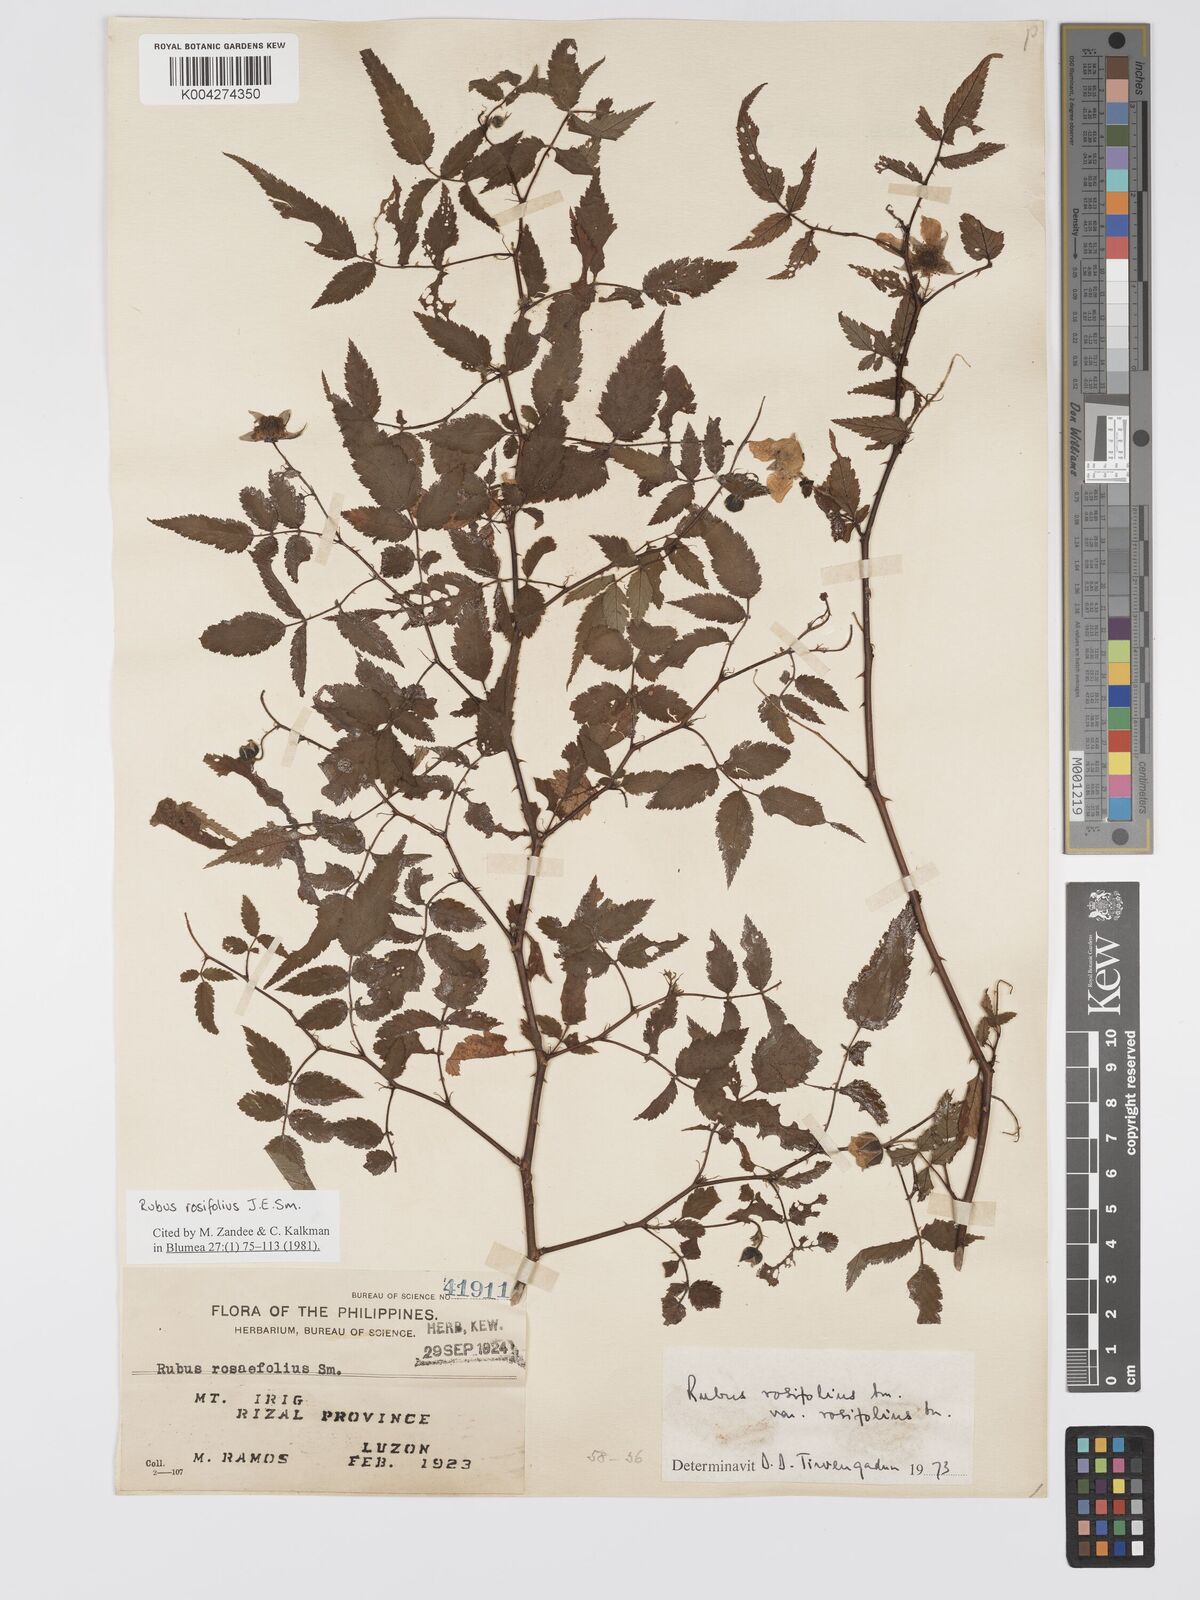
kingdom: Plantae
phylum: Tracheophyta
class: Magnoliopsida
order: Rosales
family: Rosaceae
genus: Rubus
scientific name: Rubus
